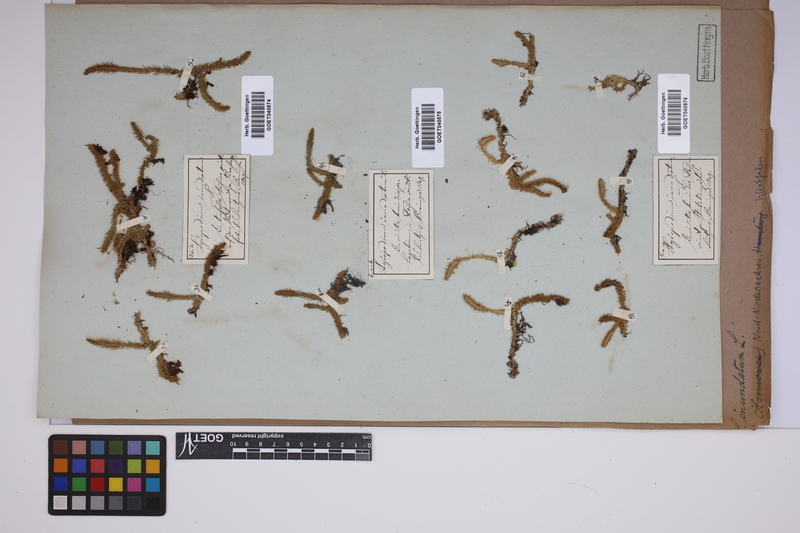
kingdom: Plantae
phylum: Tracheophyta
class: Lycopodiopsida
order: Lycopodiales
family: Lycopodiaceae
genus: Lycopodiella
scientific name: Lycopodiella inundata
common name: Marsh clubmoss
